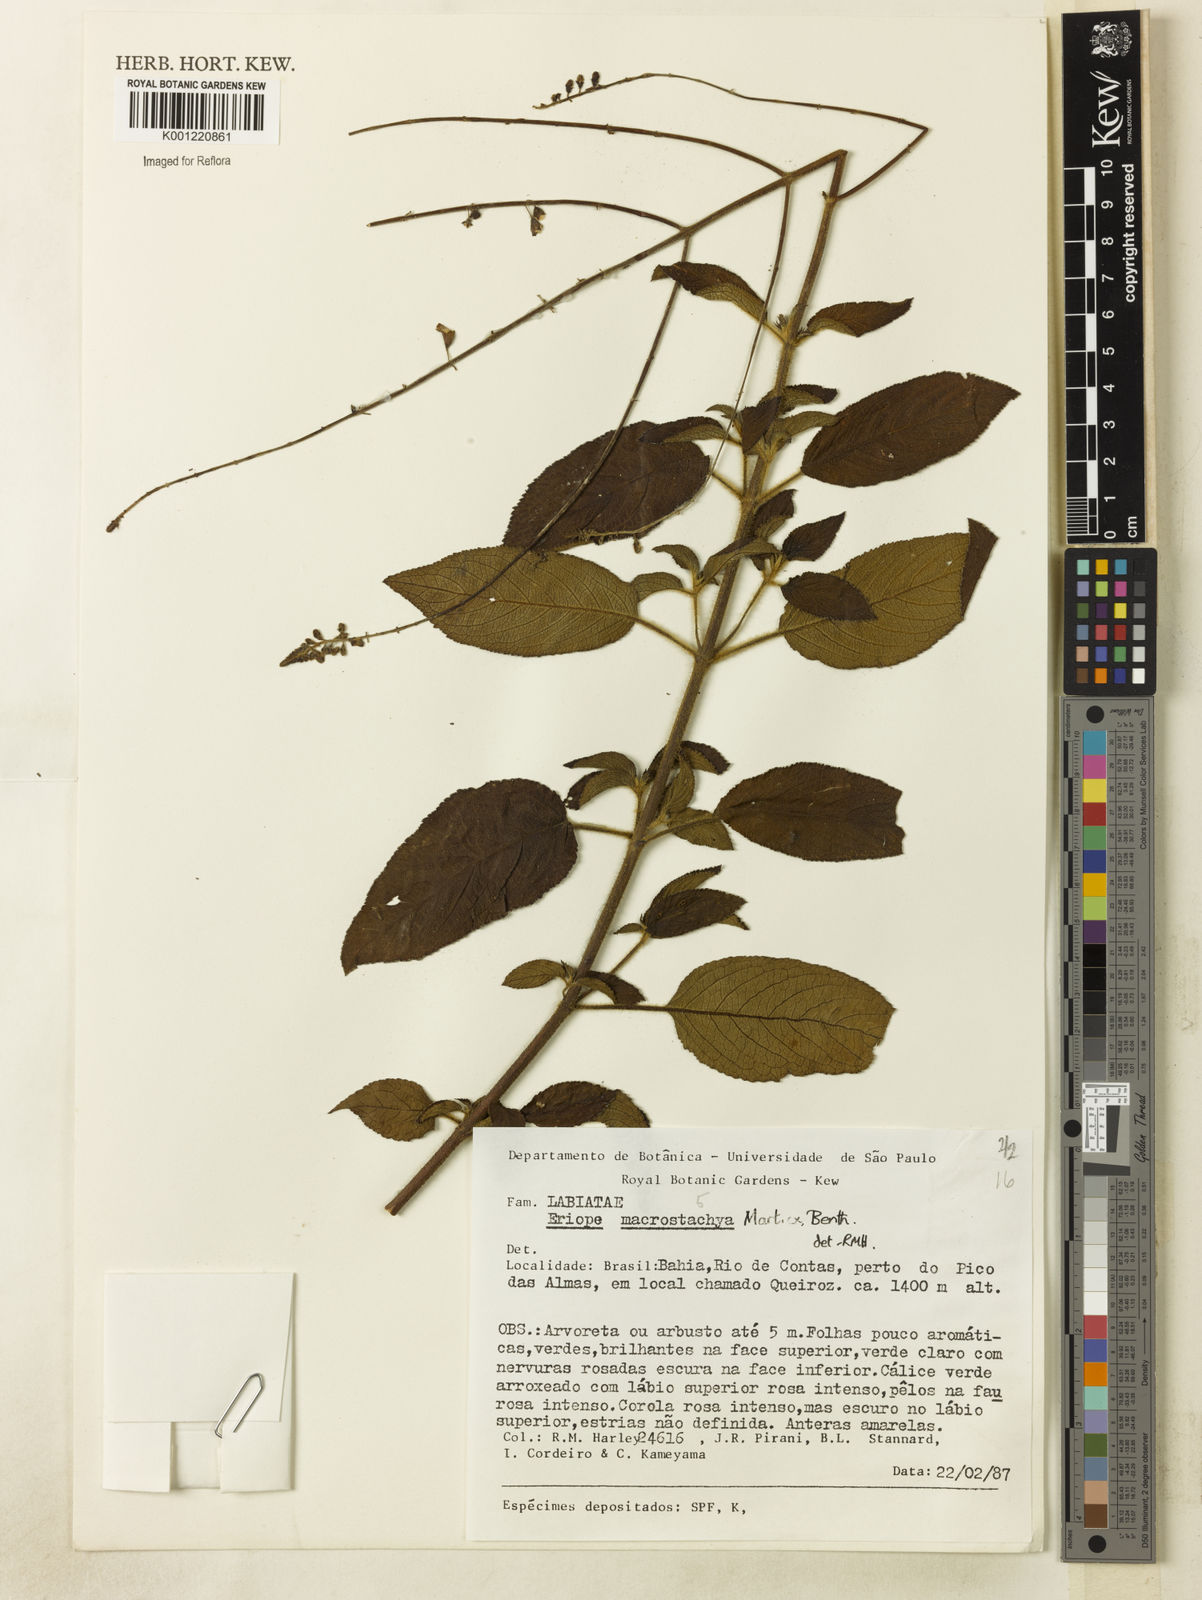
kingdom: Plantae
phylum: Tracheophyta
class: Magnoliopsida
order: Lamiales
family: Lamiaceae
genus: Eriope
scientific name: Eriope macrostachya
